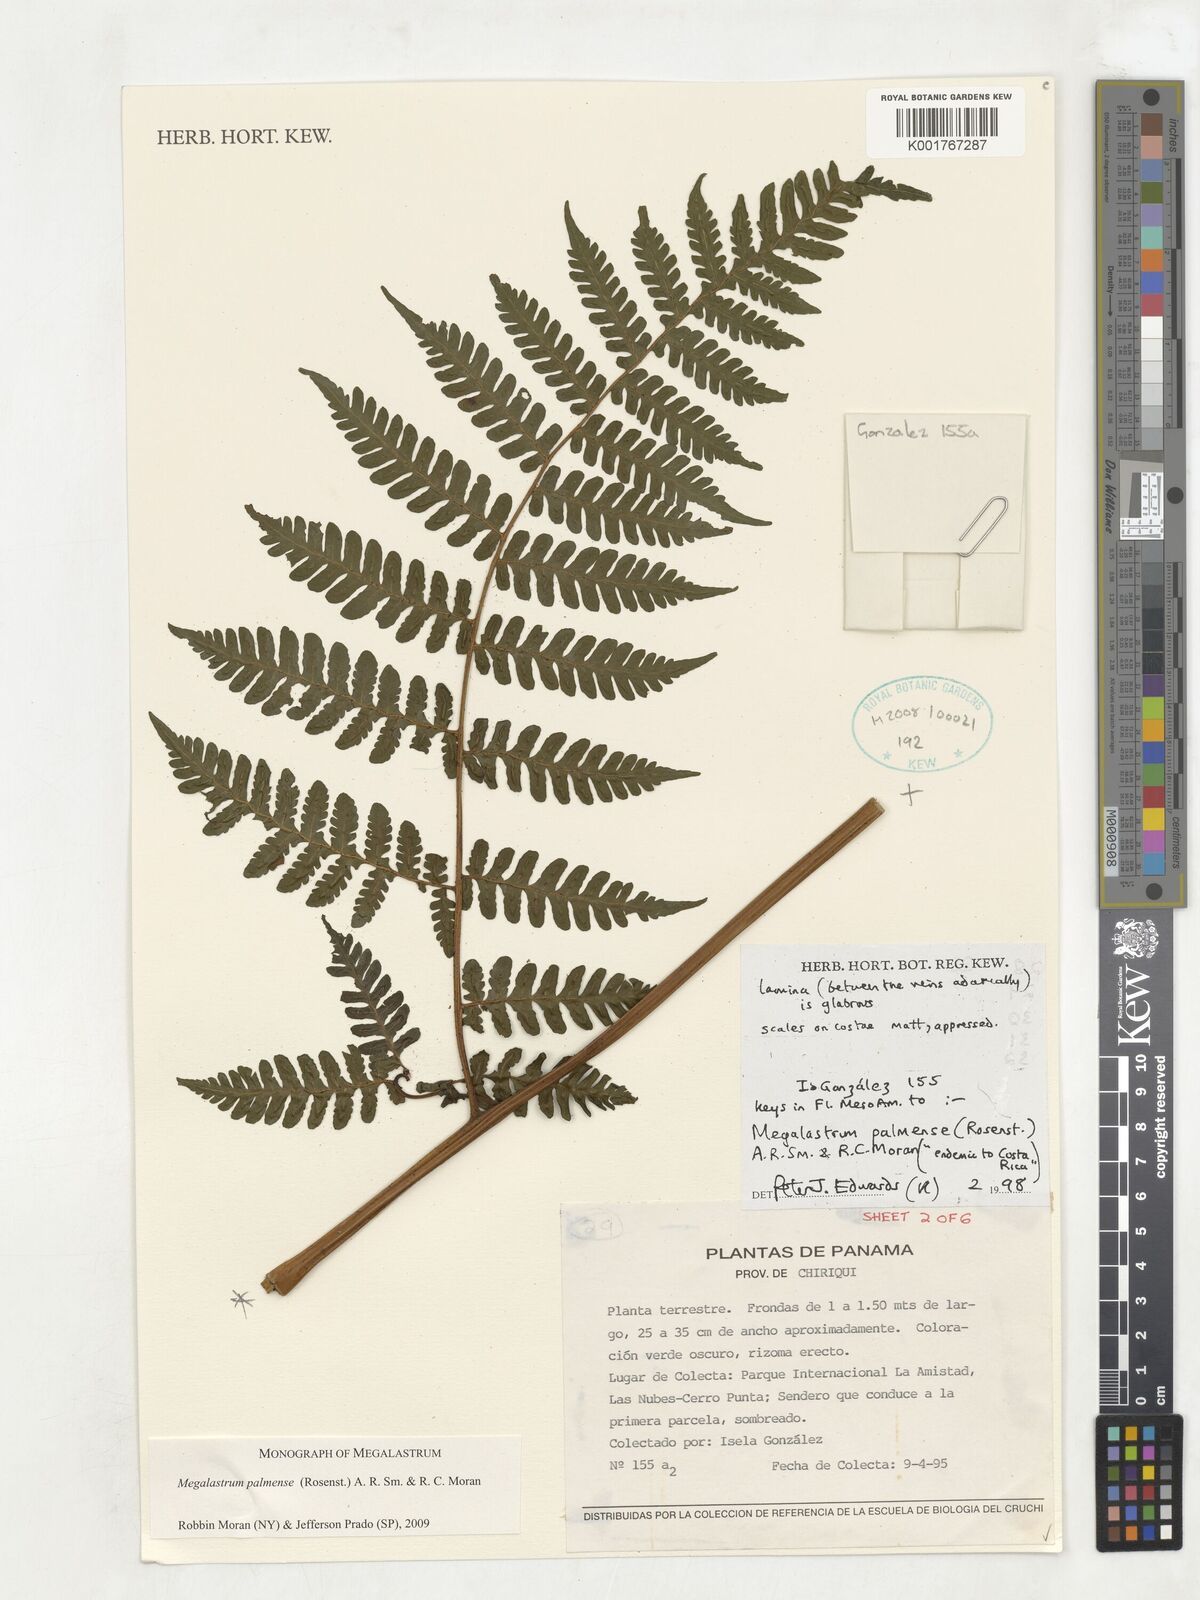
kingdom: Plantae
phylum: Tracheophyta
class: Polypodiopsida
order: Polypodiales
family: Dryopteridaceae
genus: Megalastrum
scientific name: Megalastrum palmense
